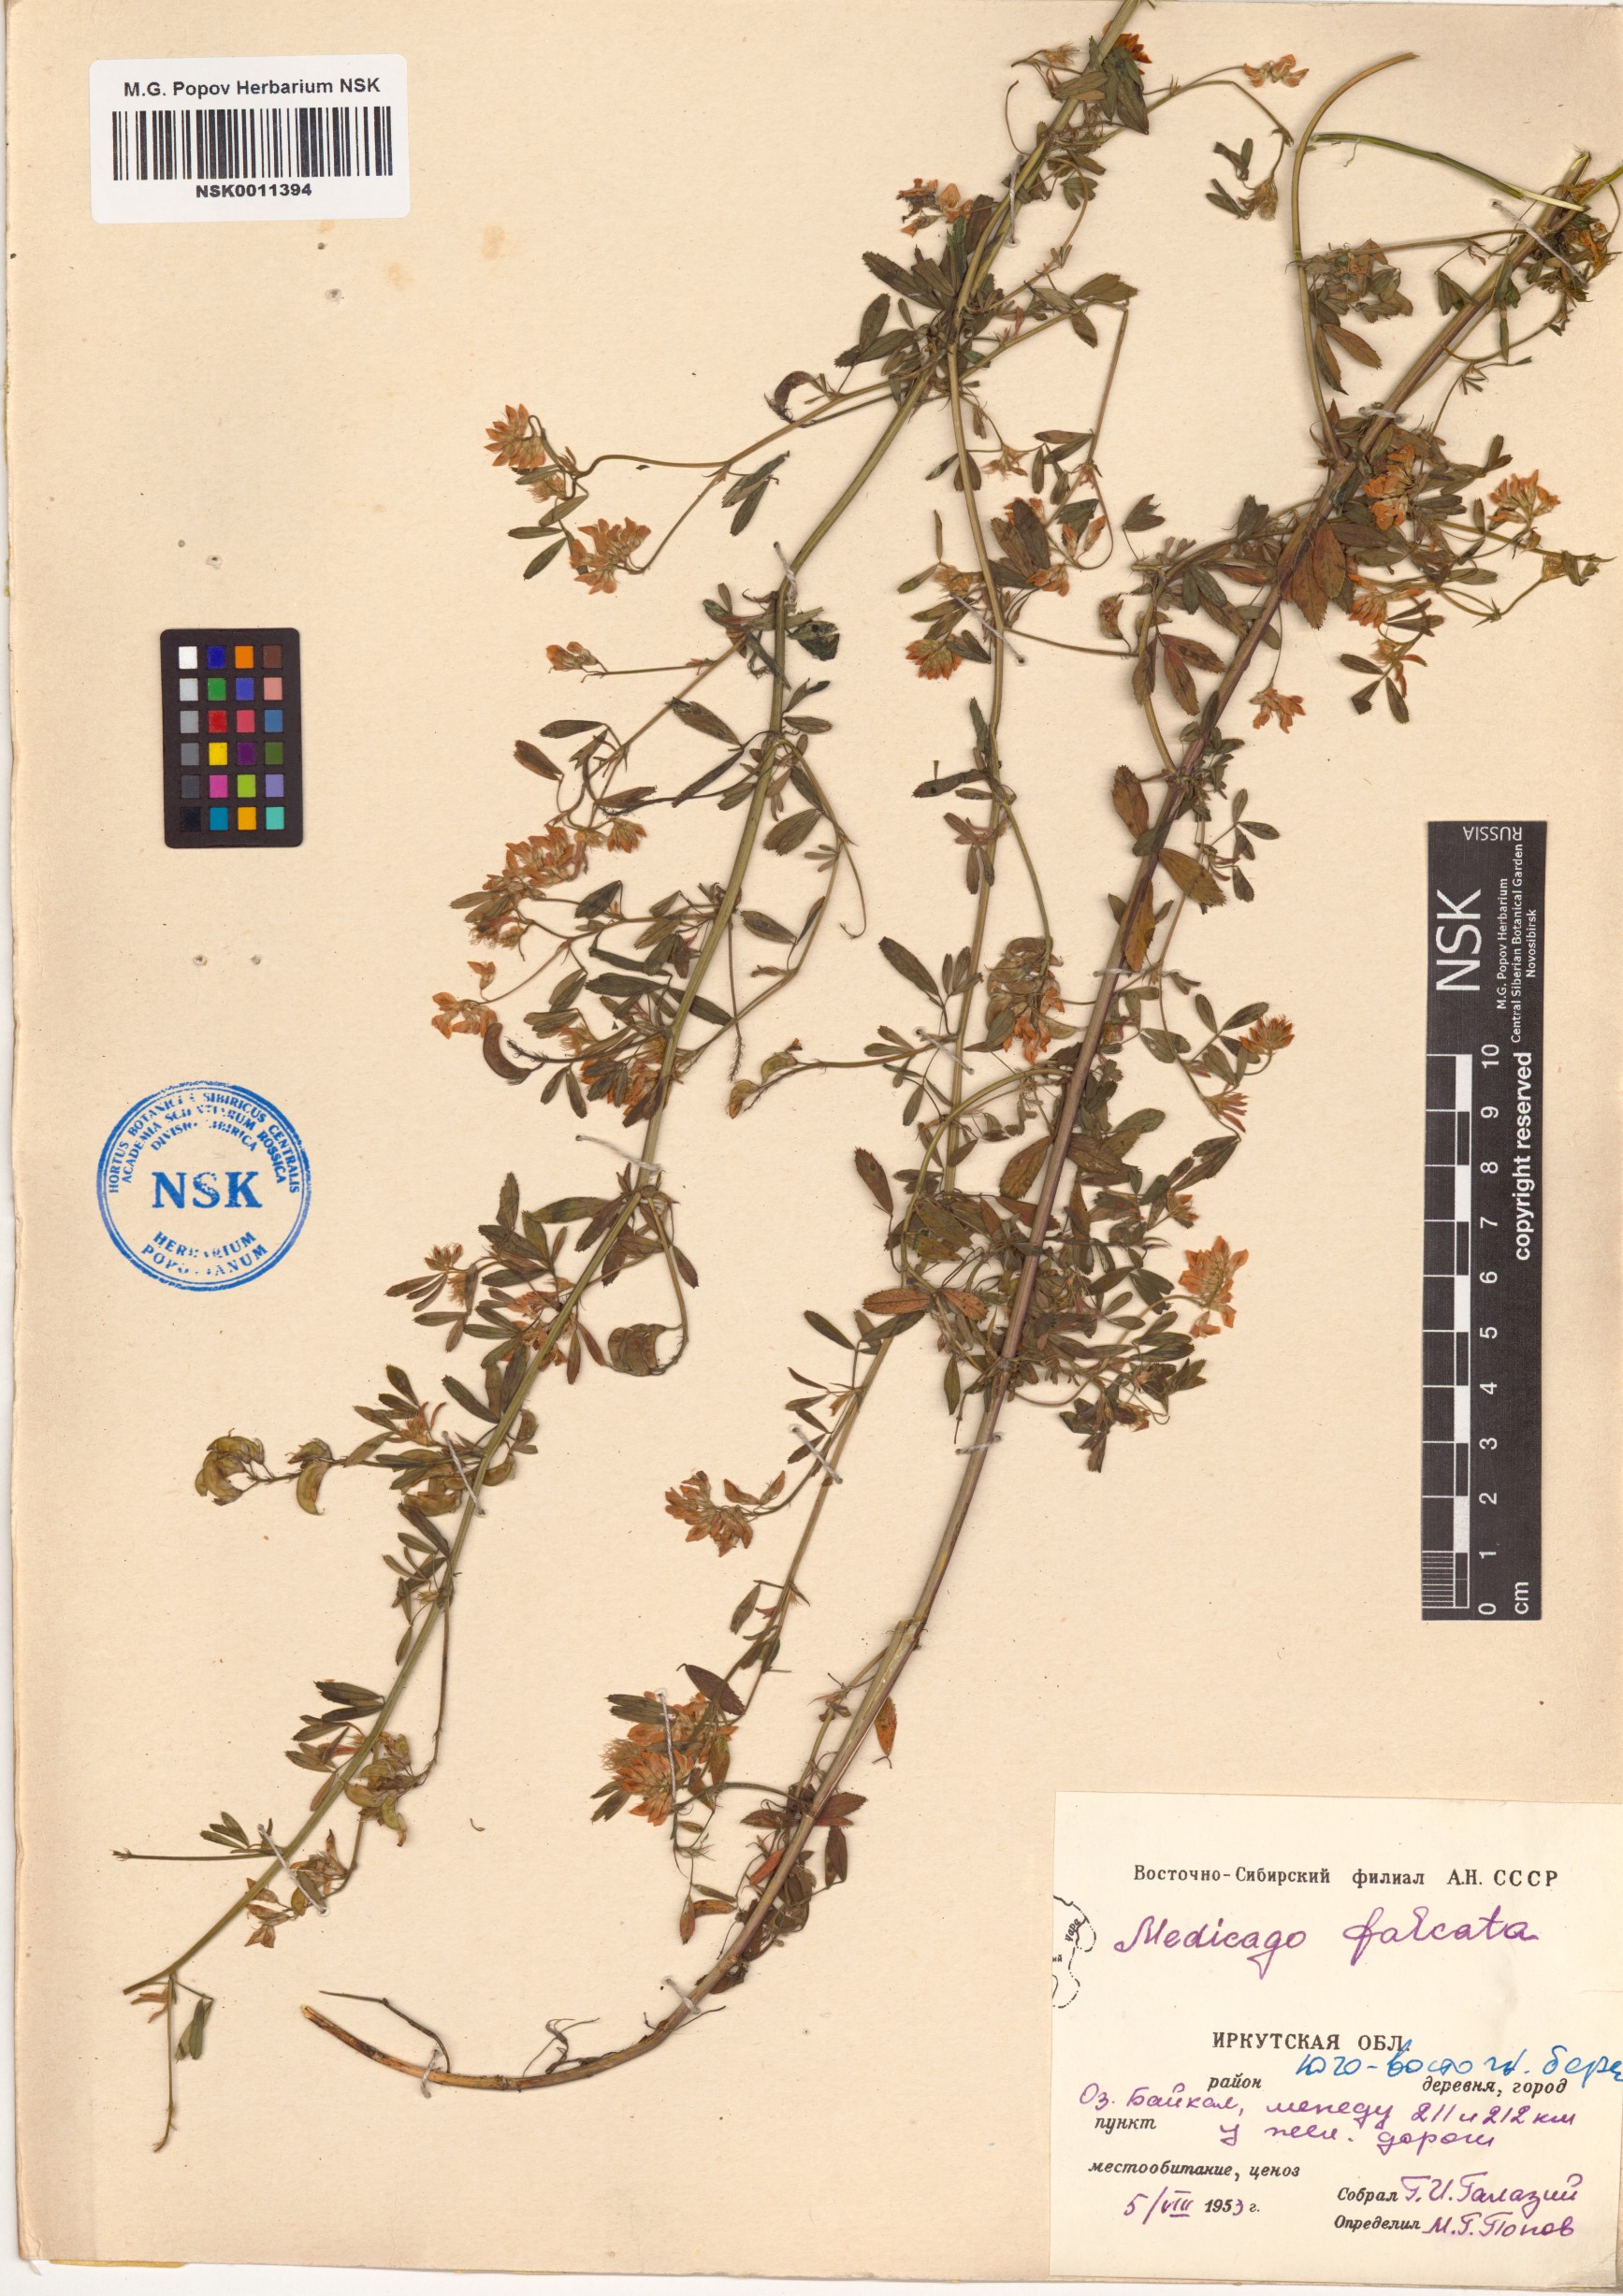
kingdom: Plantae
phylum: Tracheophyta
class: Magnoliopsida
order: Fabales
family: Fabaceae
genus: Medicago
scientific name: Medicago falcata
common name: Sickle medick
